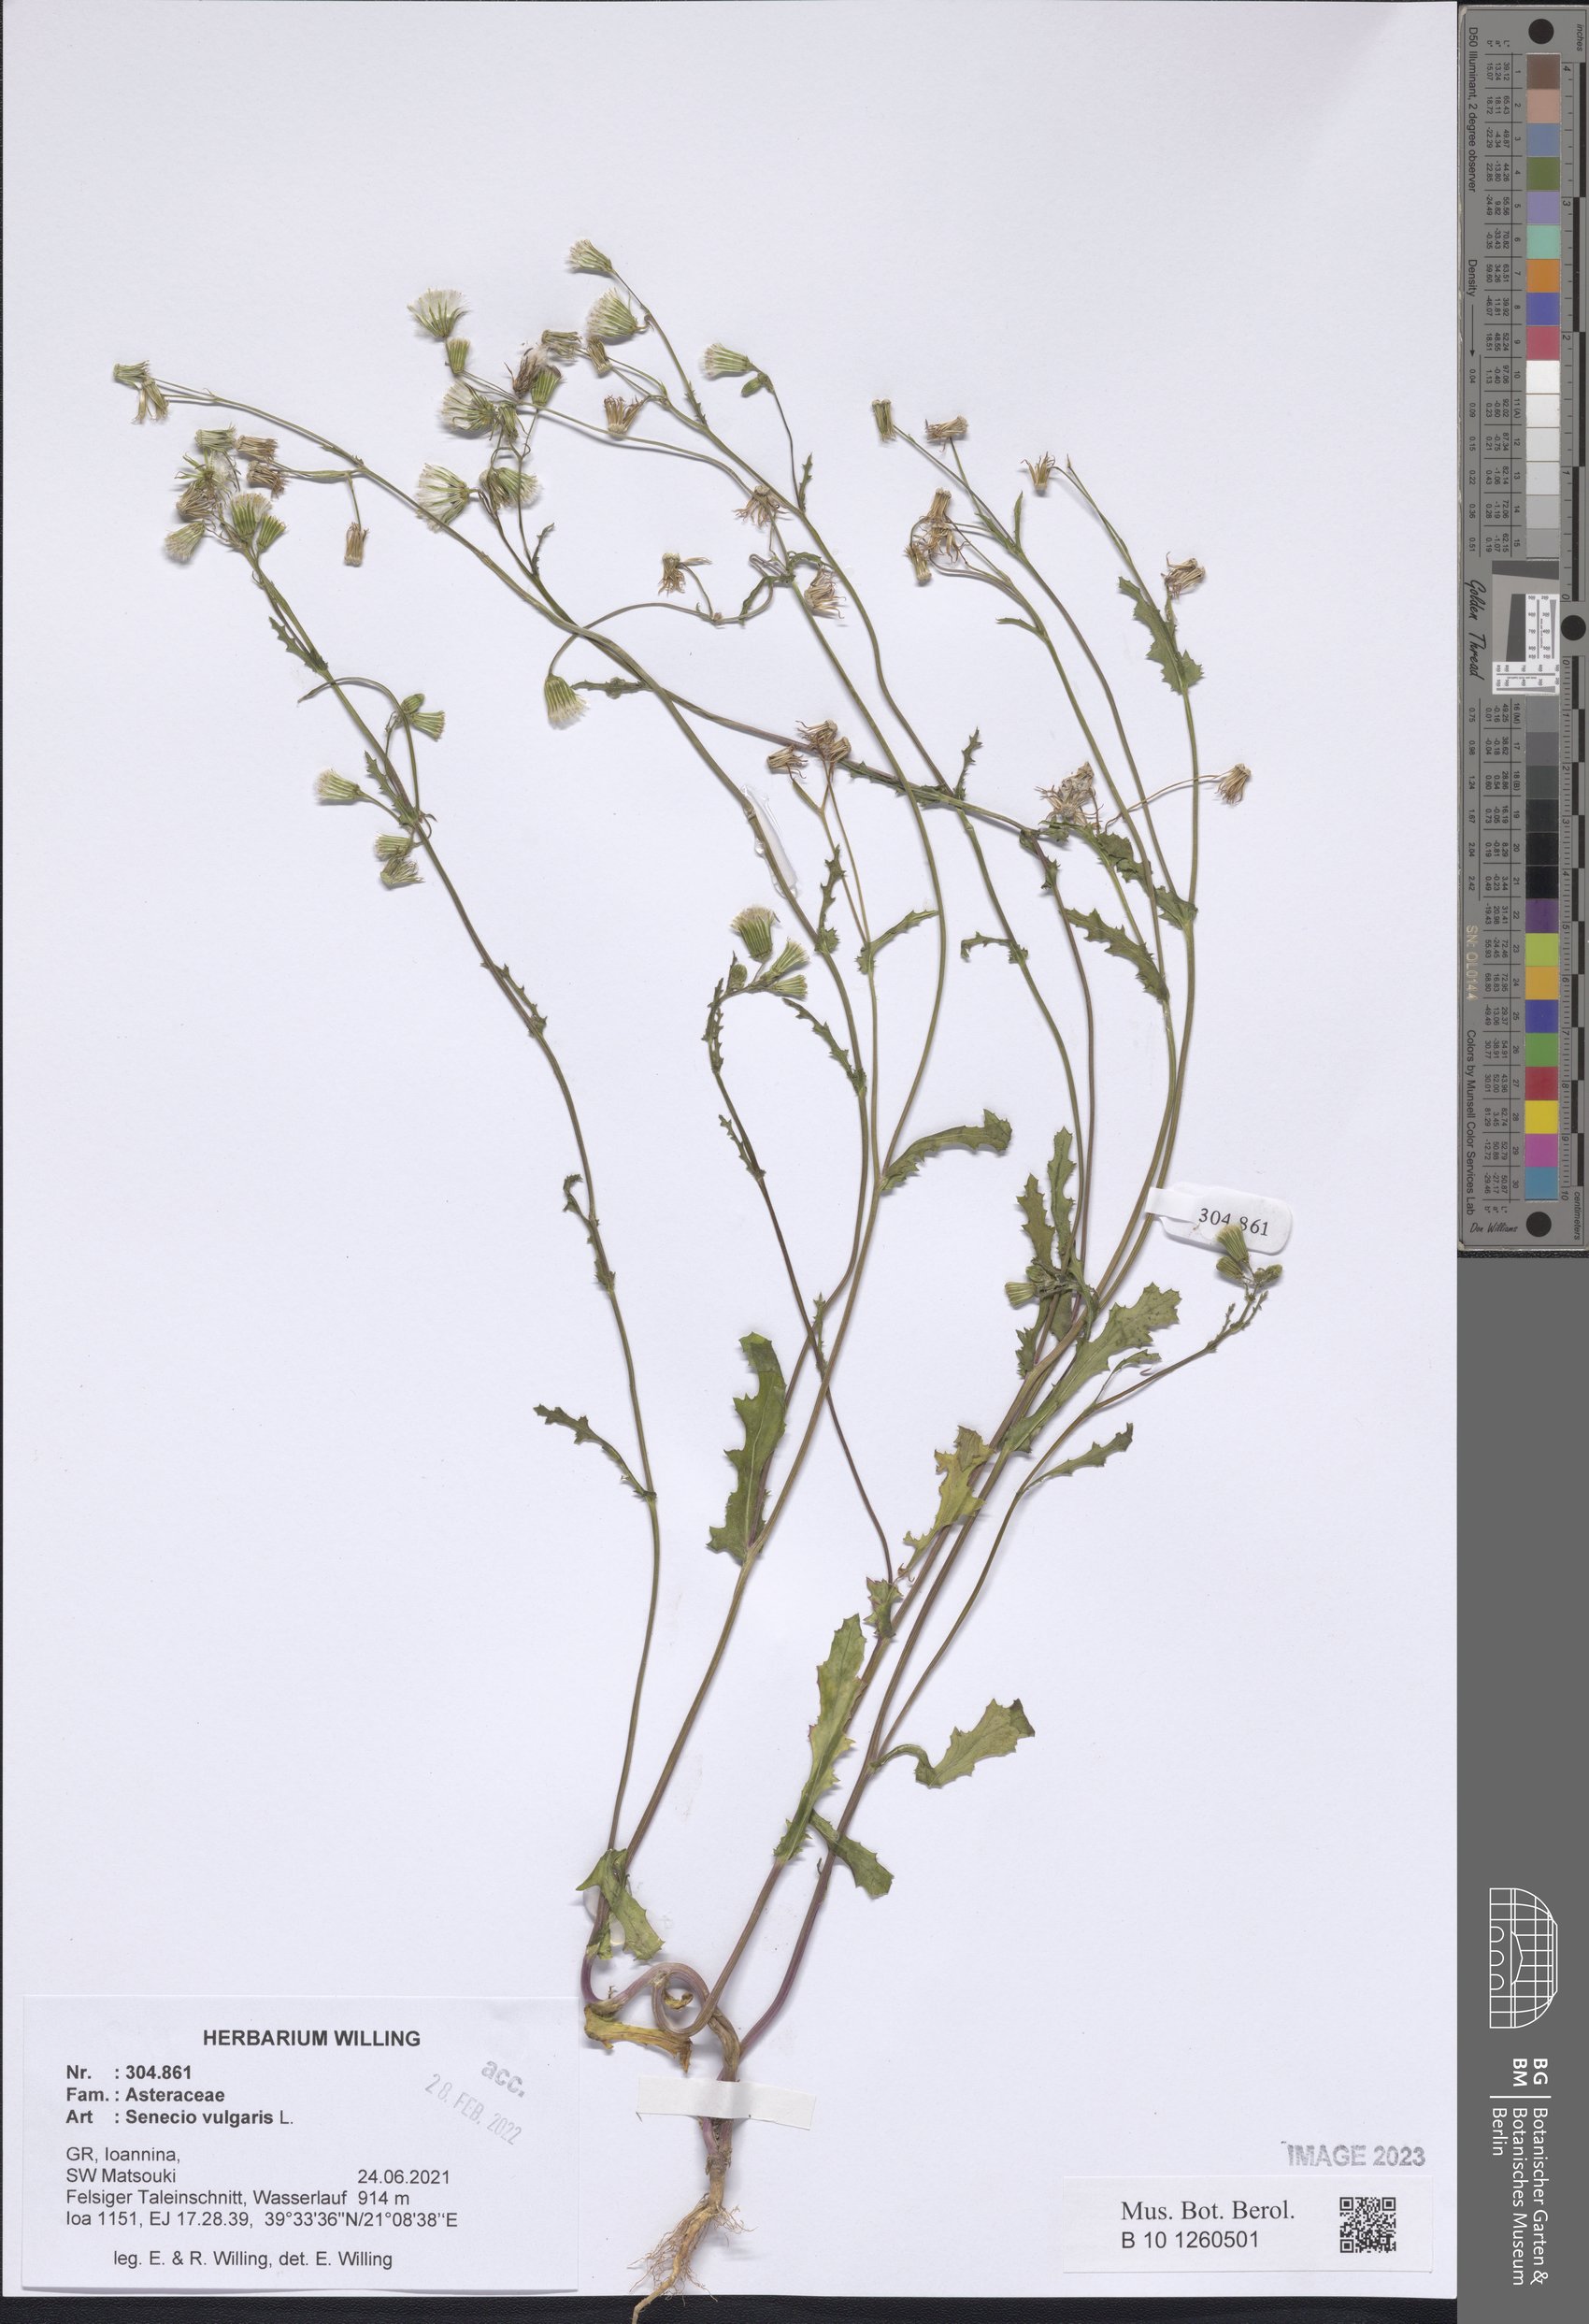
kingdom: Plantae
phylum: Tracheophyta
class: Magnoliopsida
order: Asterales
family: Asteraceae
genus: Senecio
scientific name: Senecio vulgaris
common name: Old-man-in-the-spring
